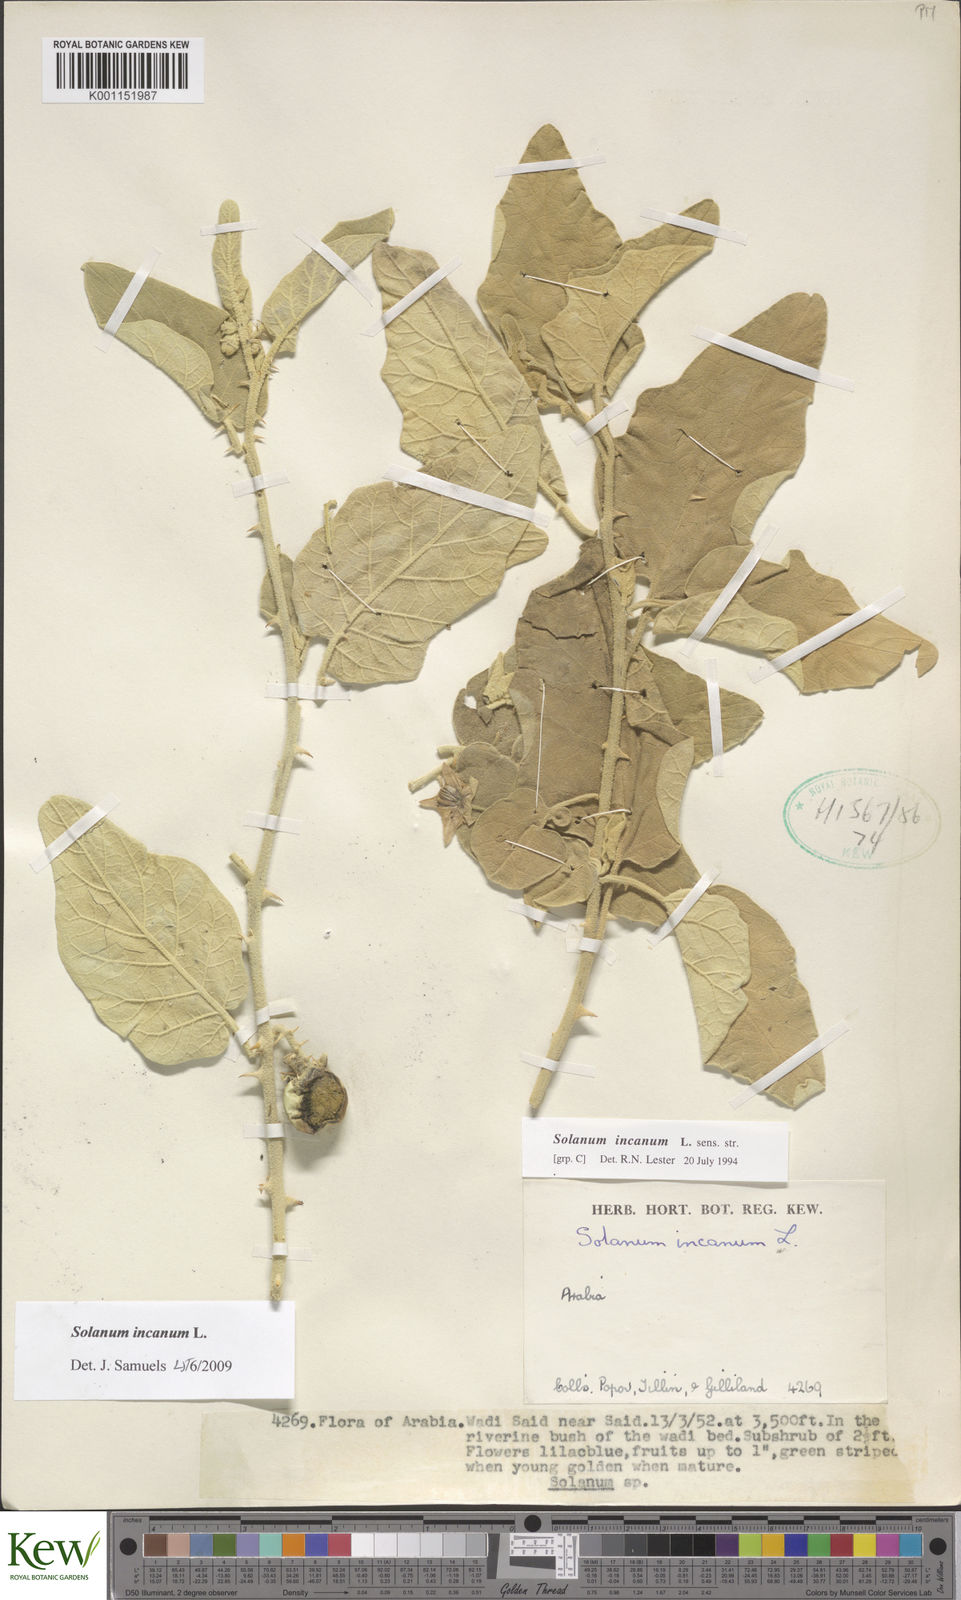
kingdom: Plantae
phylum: Tracheophyta
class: Magnoliopsida
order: Solanales
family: Solanaceae
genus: Solanum
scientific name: Solanum incanum
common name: Bitter apple
